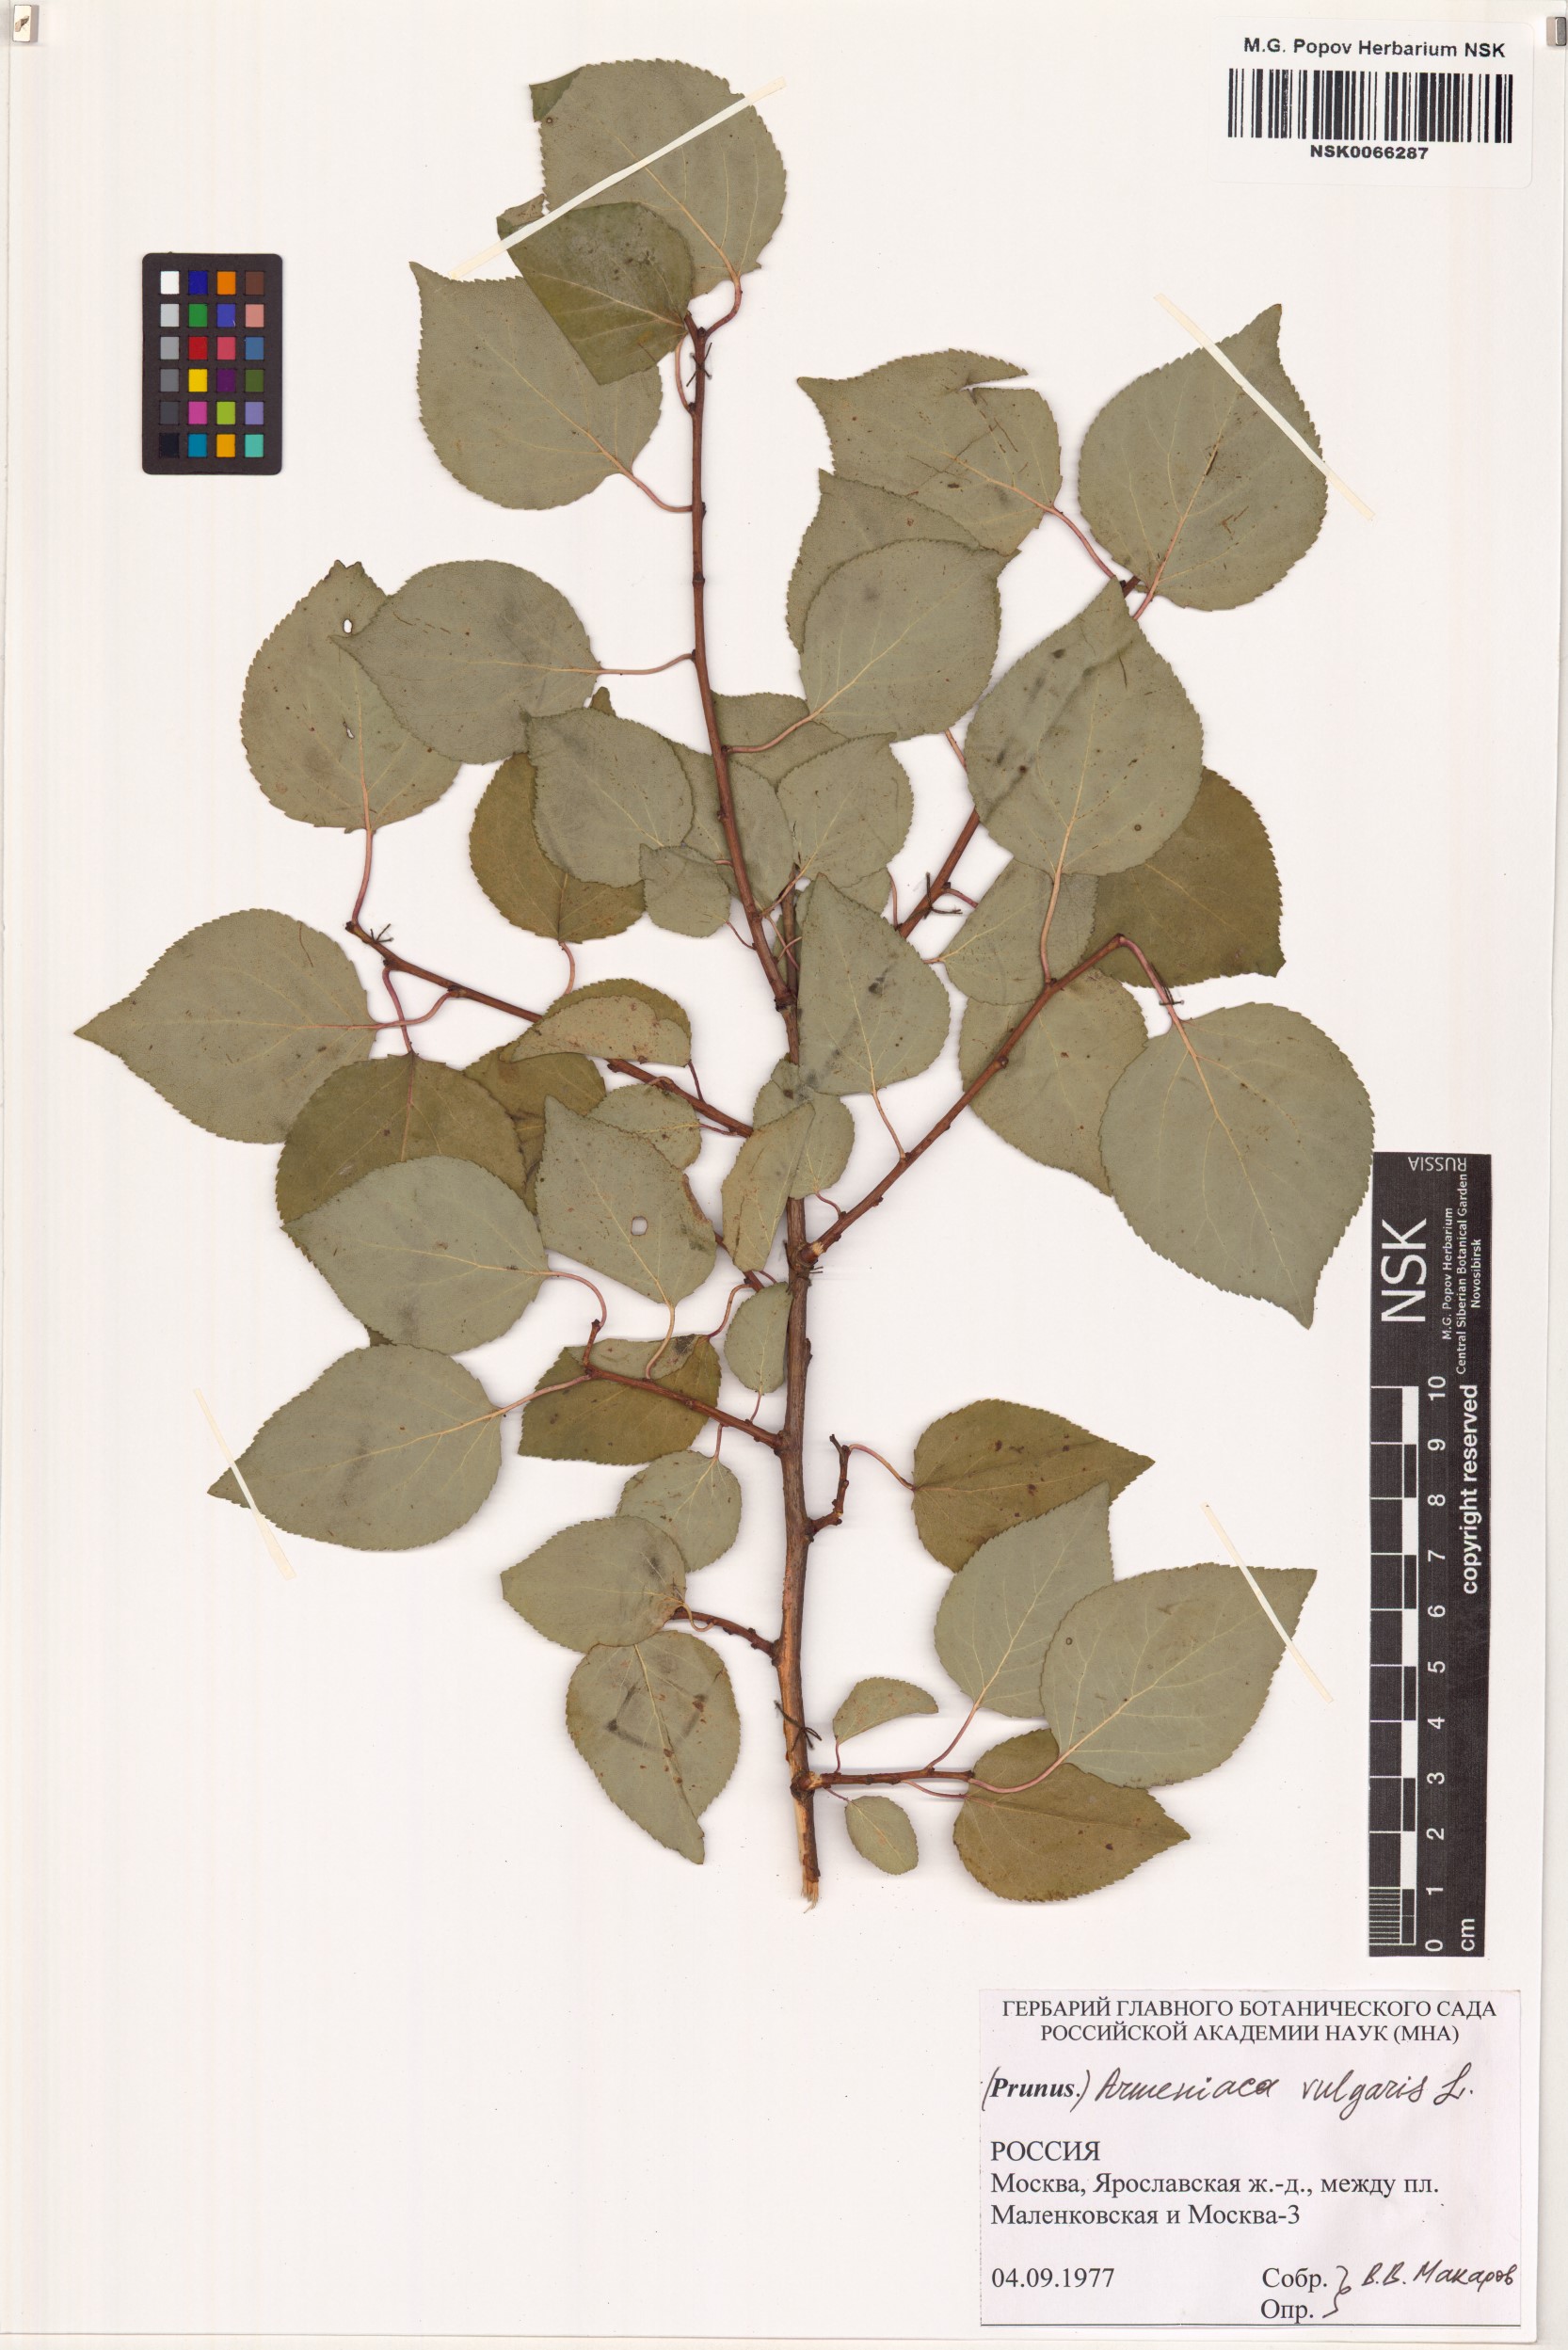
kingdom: Plantae
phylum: Tracheophyta
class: Magnoliopsida
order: Rosales
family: Rosaceae
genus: Prunus
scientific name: Prunus armeniaca
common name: Apricot
